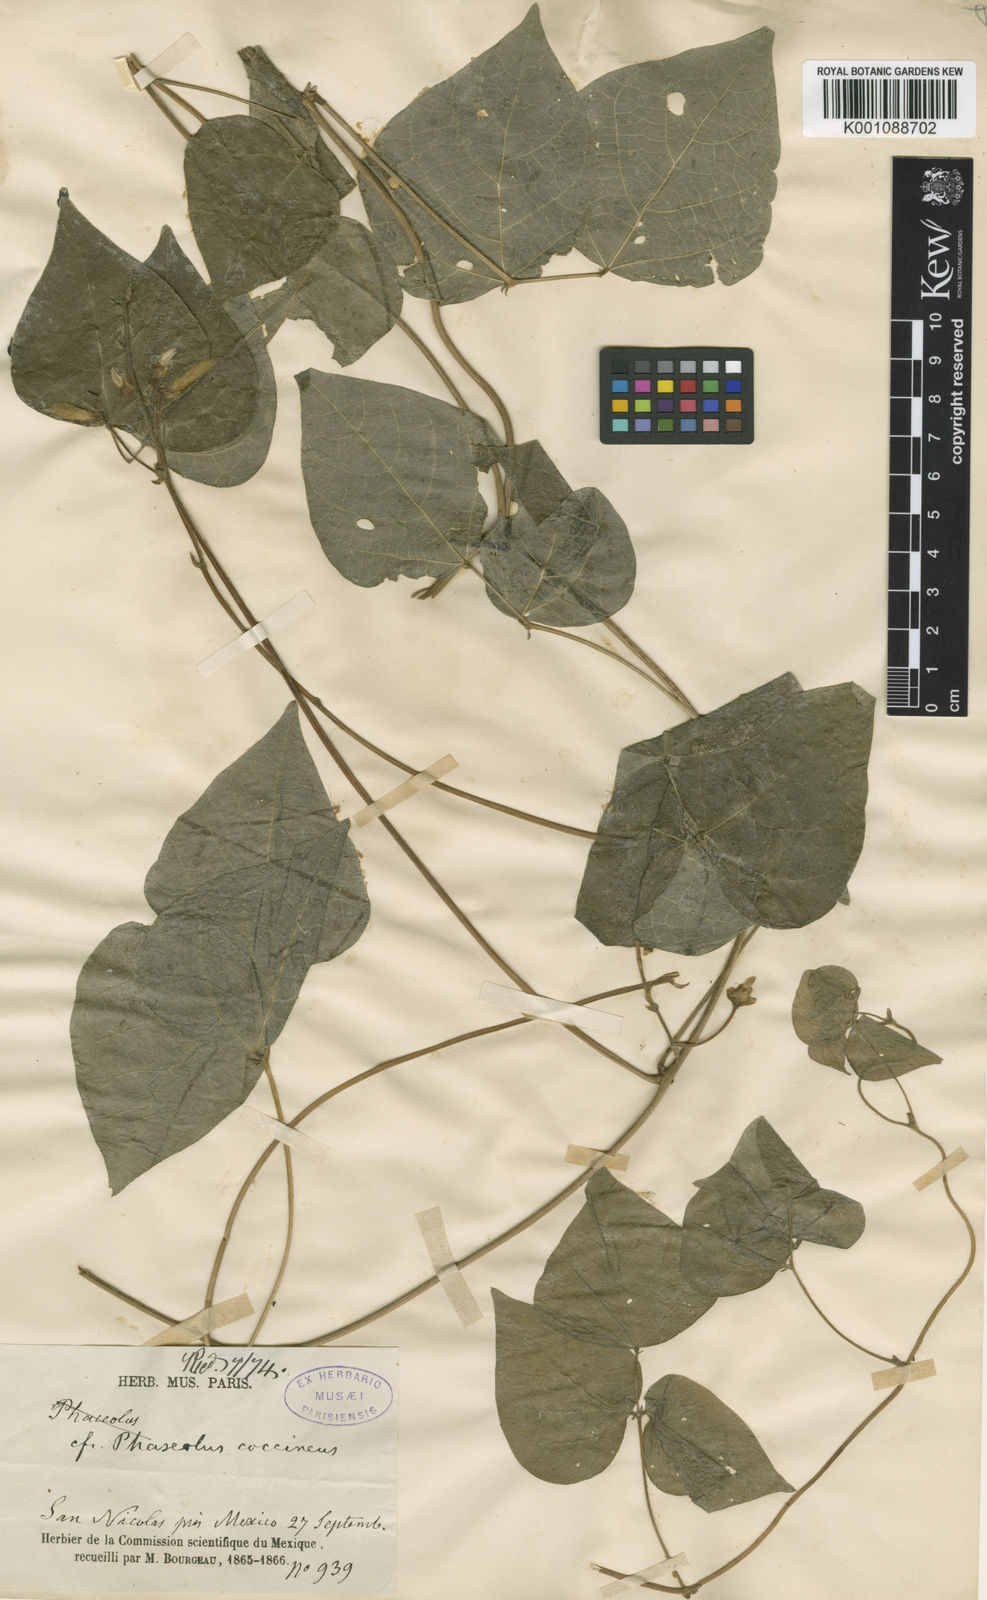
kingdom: Plantae
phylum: Tracheophyta
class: Magnoliopsida
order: Fabales
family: Fabaceae
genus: Phaseolus
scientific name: Phaseolus coccineus
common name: Runner bean
